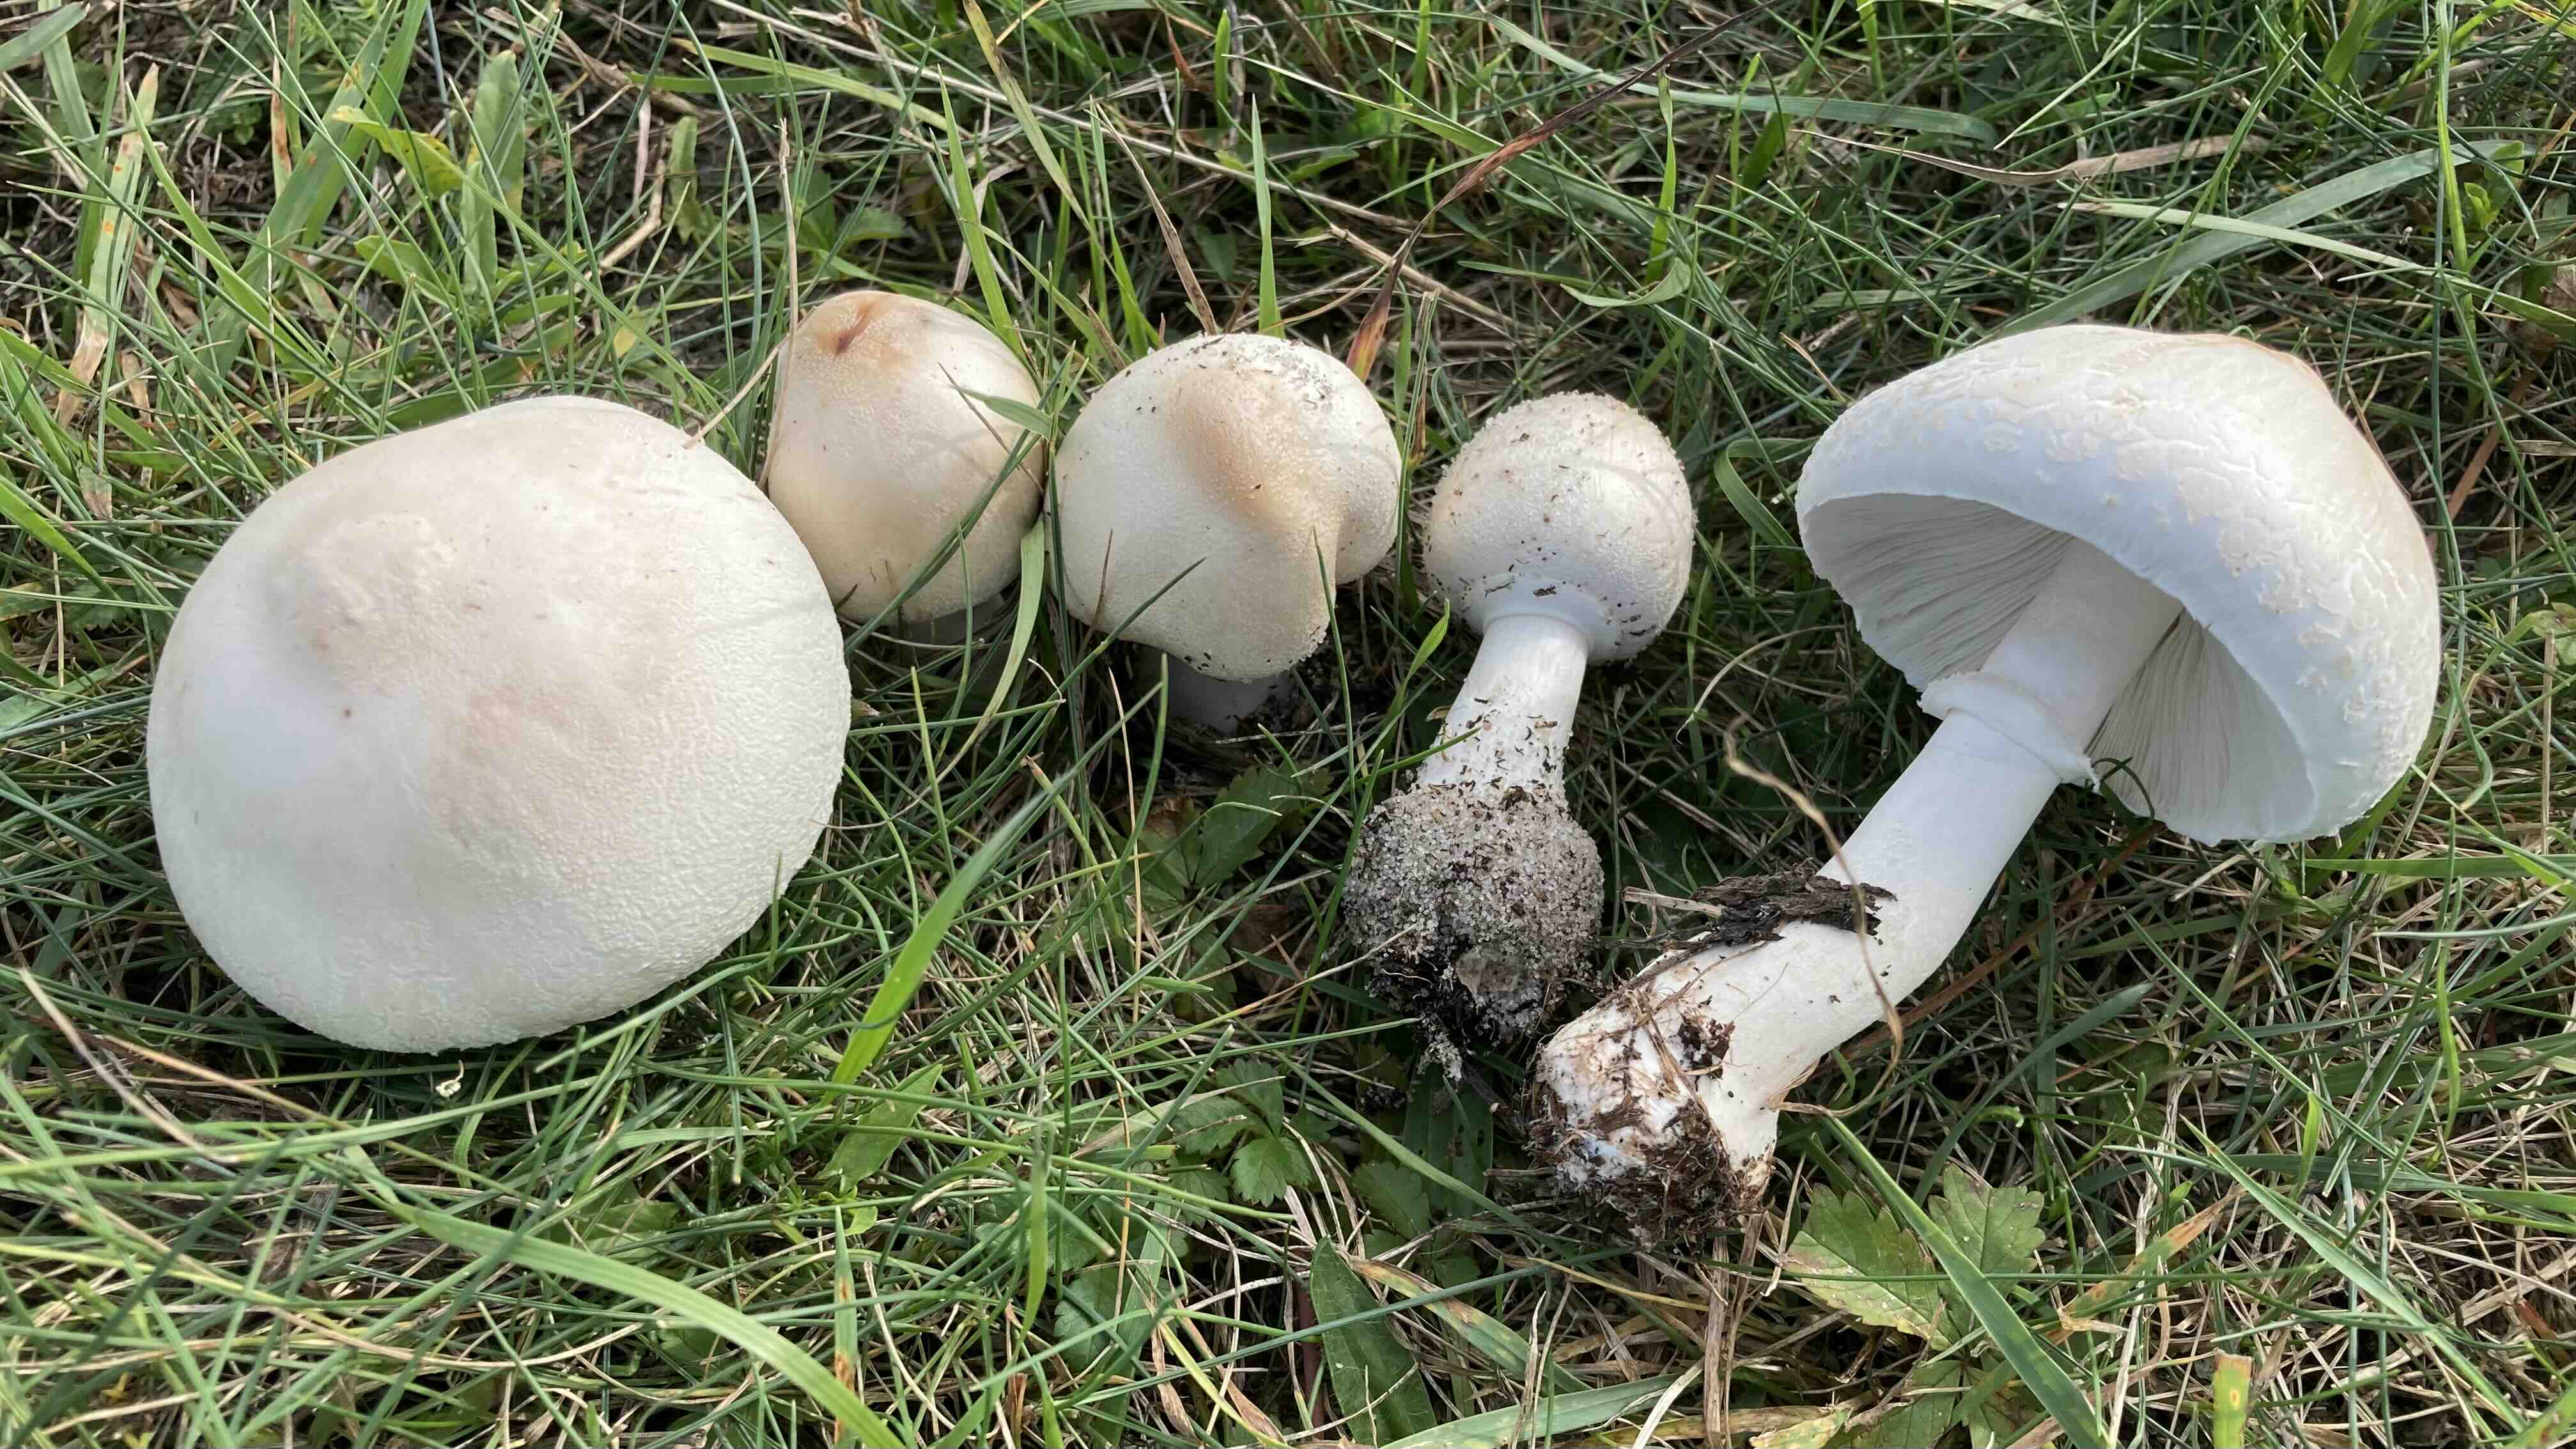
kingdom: Fungi
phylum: Basidiomycota
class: Agaricomycetes
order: Agaricales
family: Agaricaceae
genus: Macrolepiota
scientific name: Macrolepiota excoriata
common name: mark-kæmpeparasolhat
